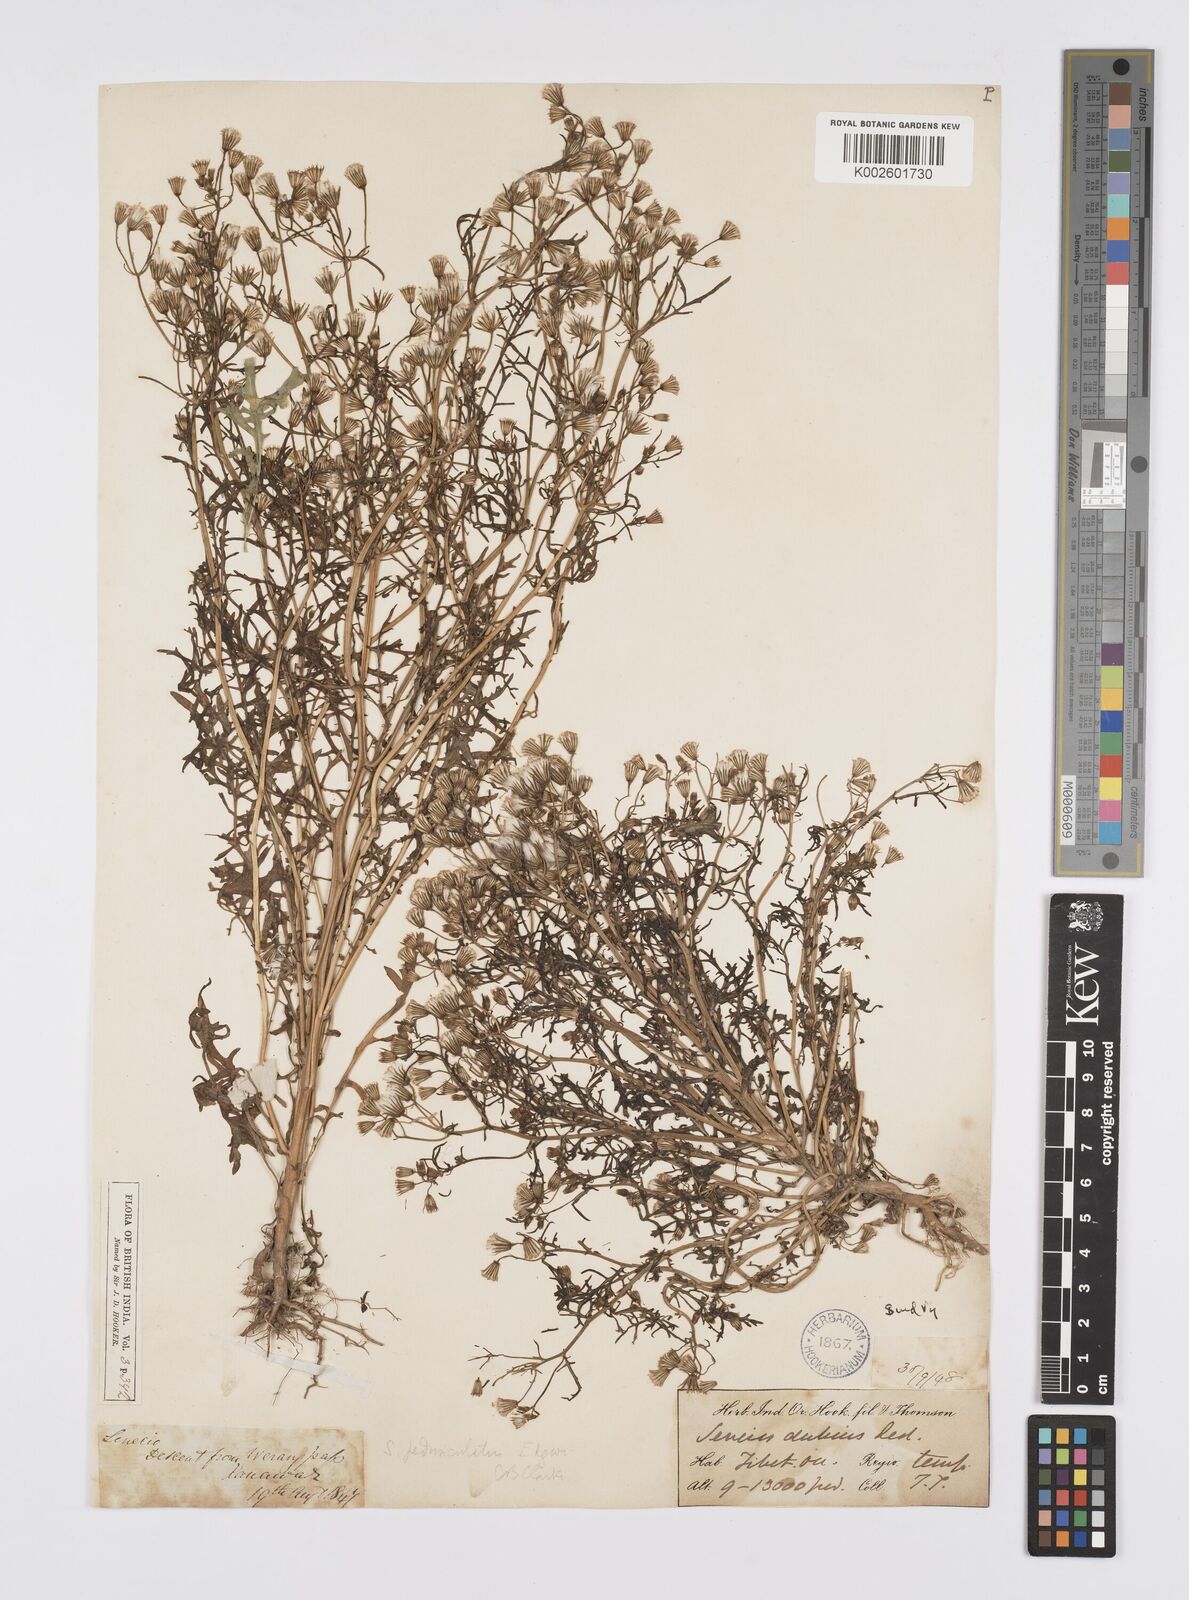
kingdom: Plantae
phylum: Tracheophyta
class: Magnoliopsida
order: Asterales
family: Asteraceae
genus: Senecio
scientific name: Senecio krascheninnikovii
